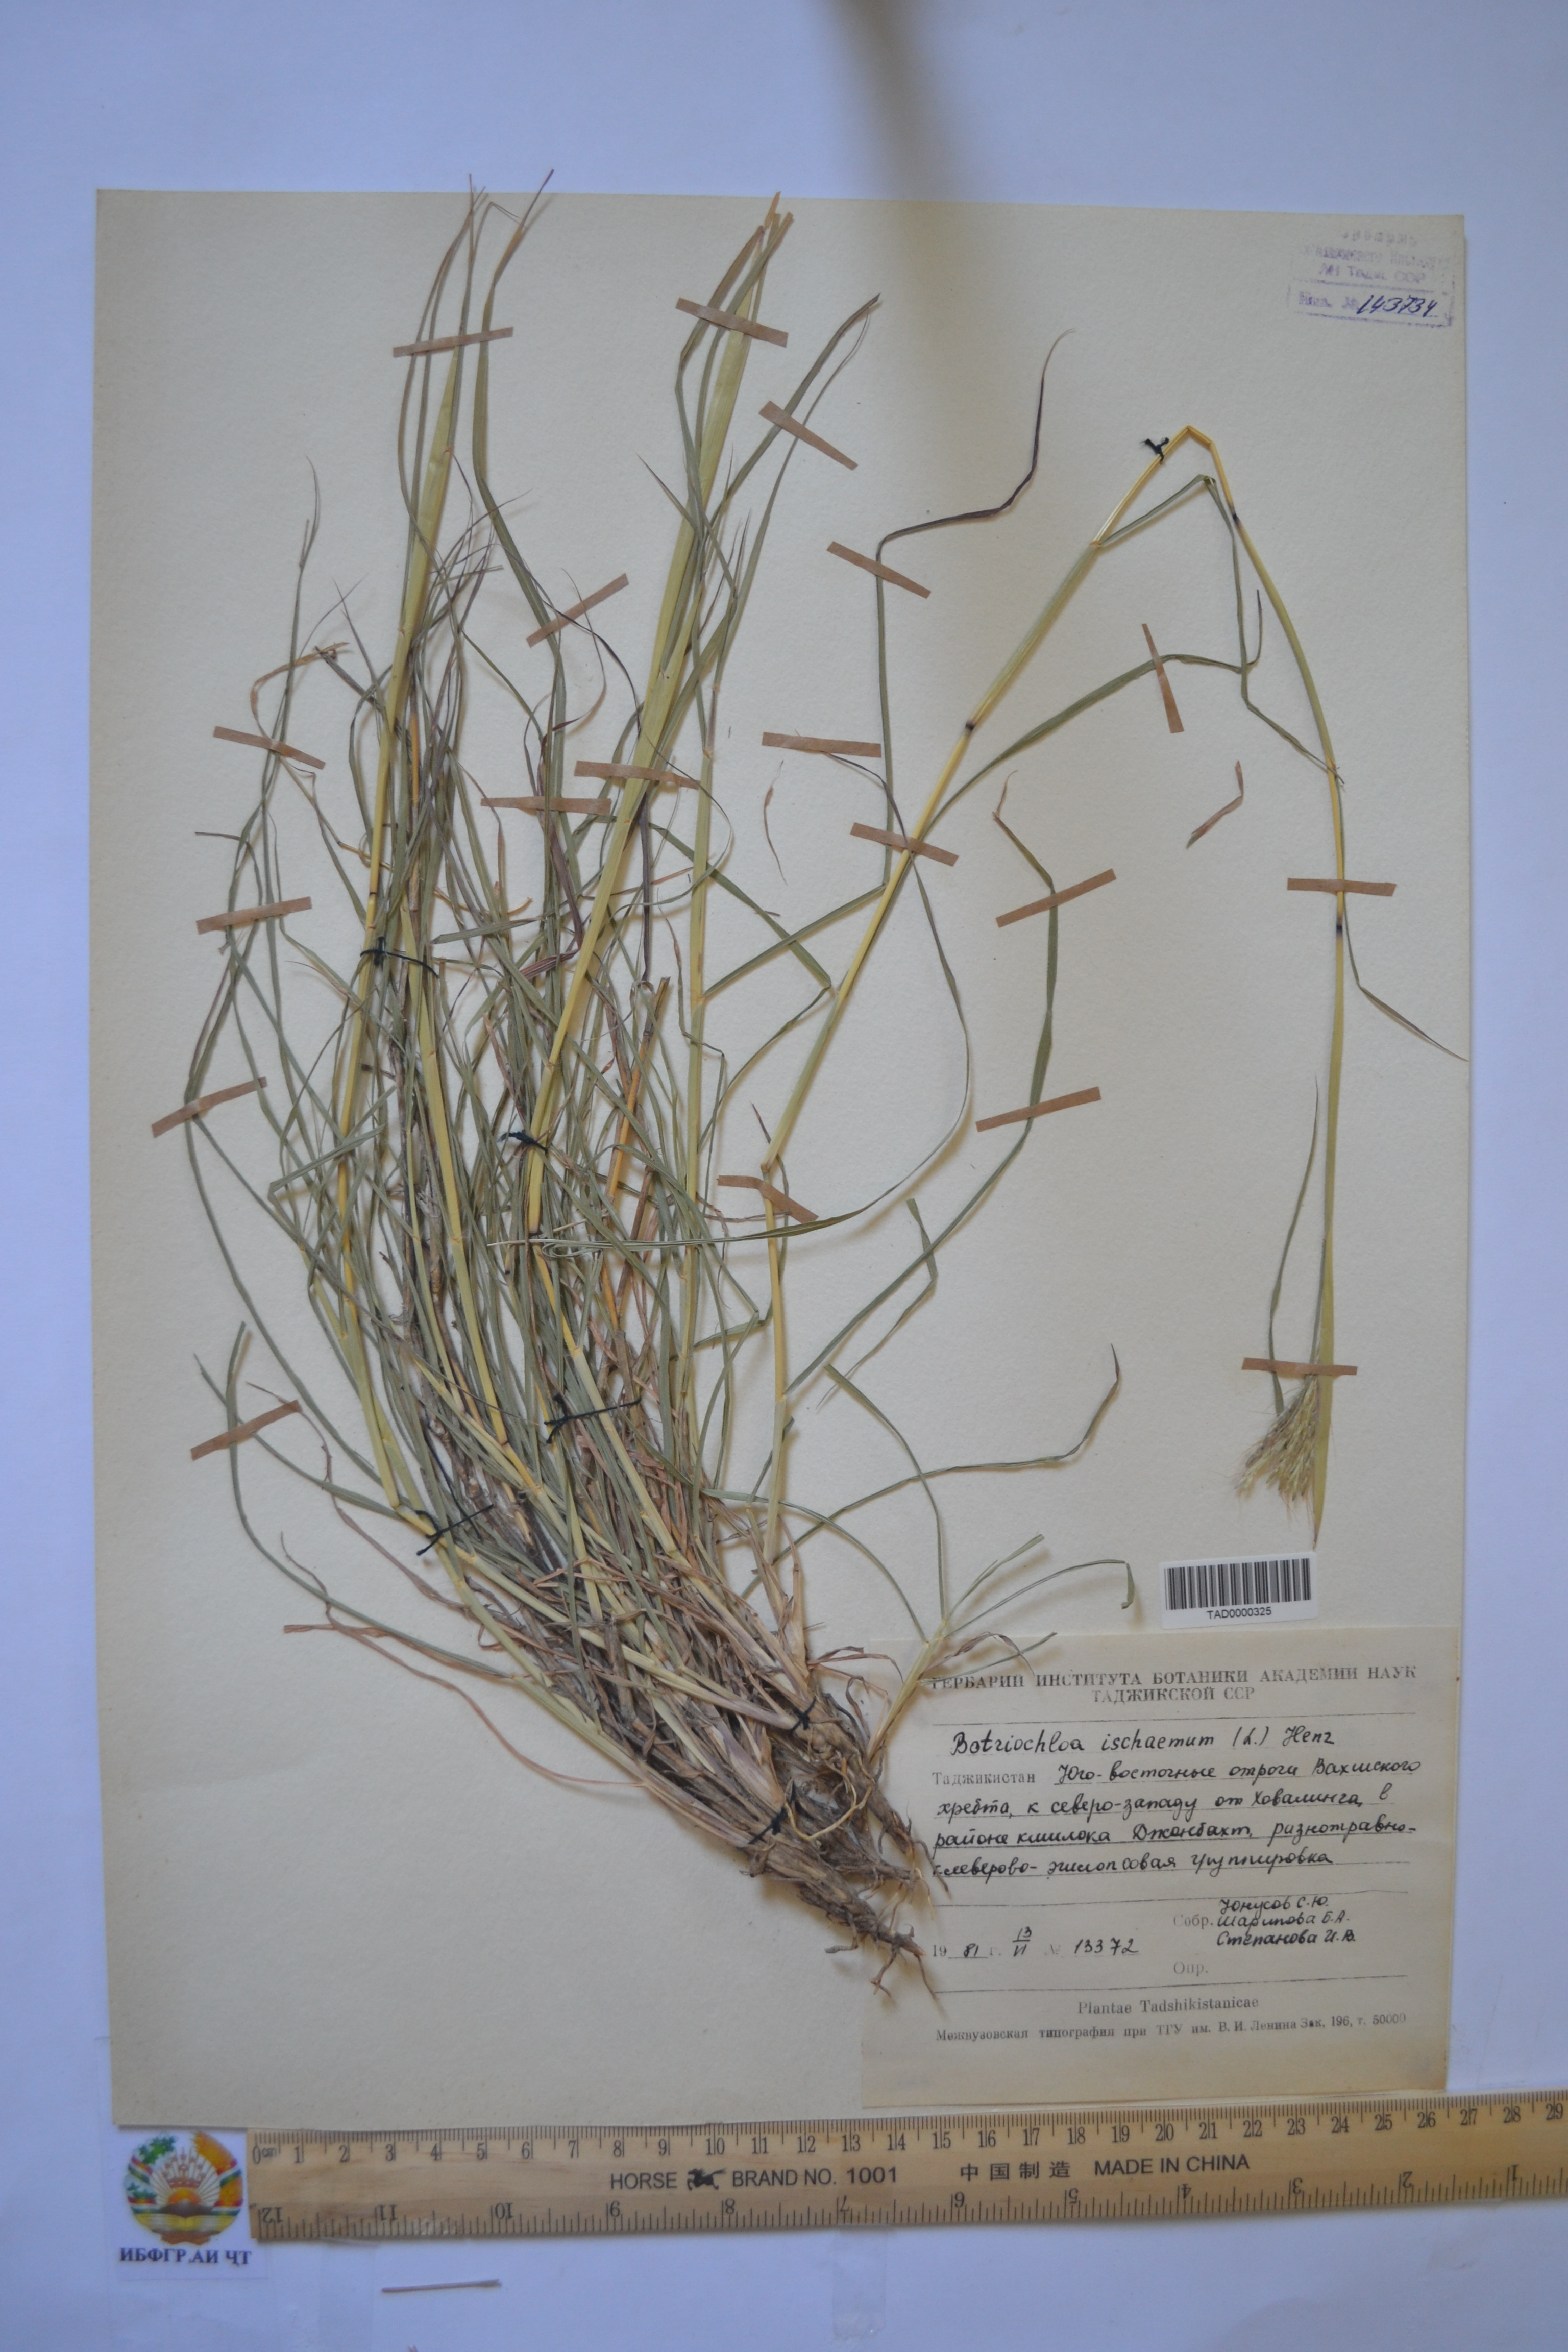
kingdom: Plantae
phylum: Tracheophyta
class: Liliopsida
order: Poales
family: Poaceae
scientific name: Poaceae
